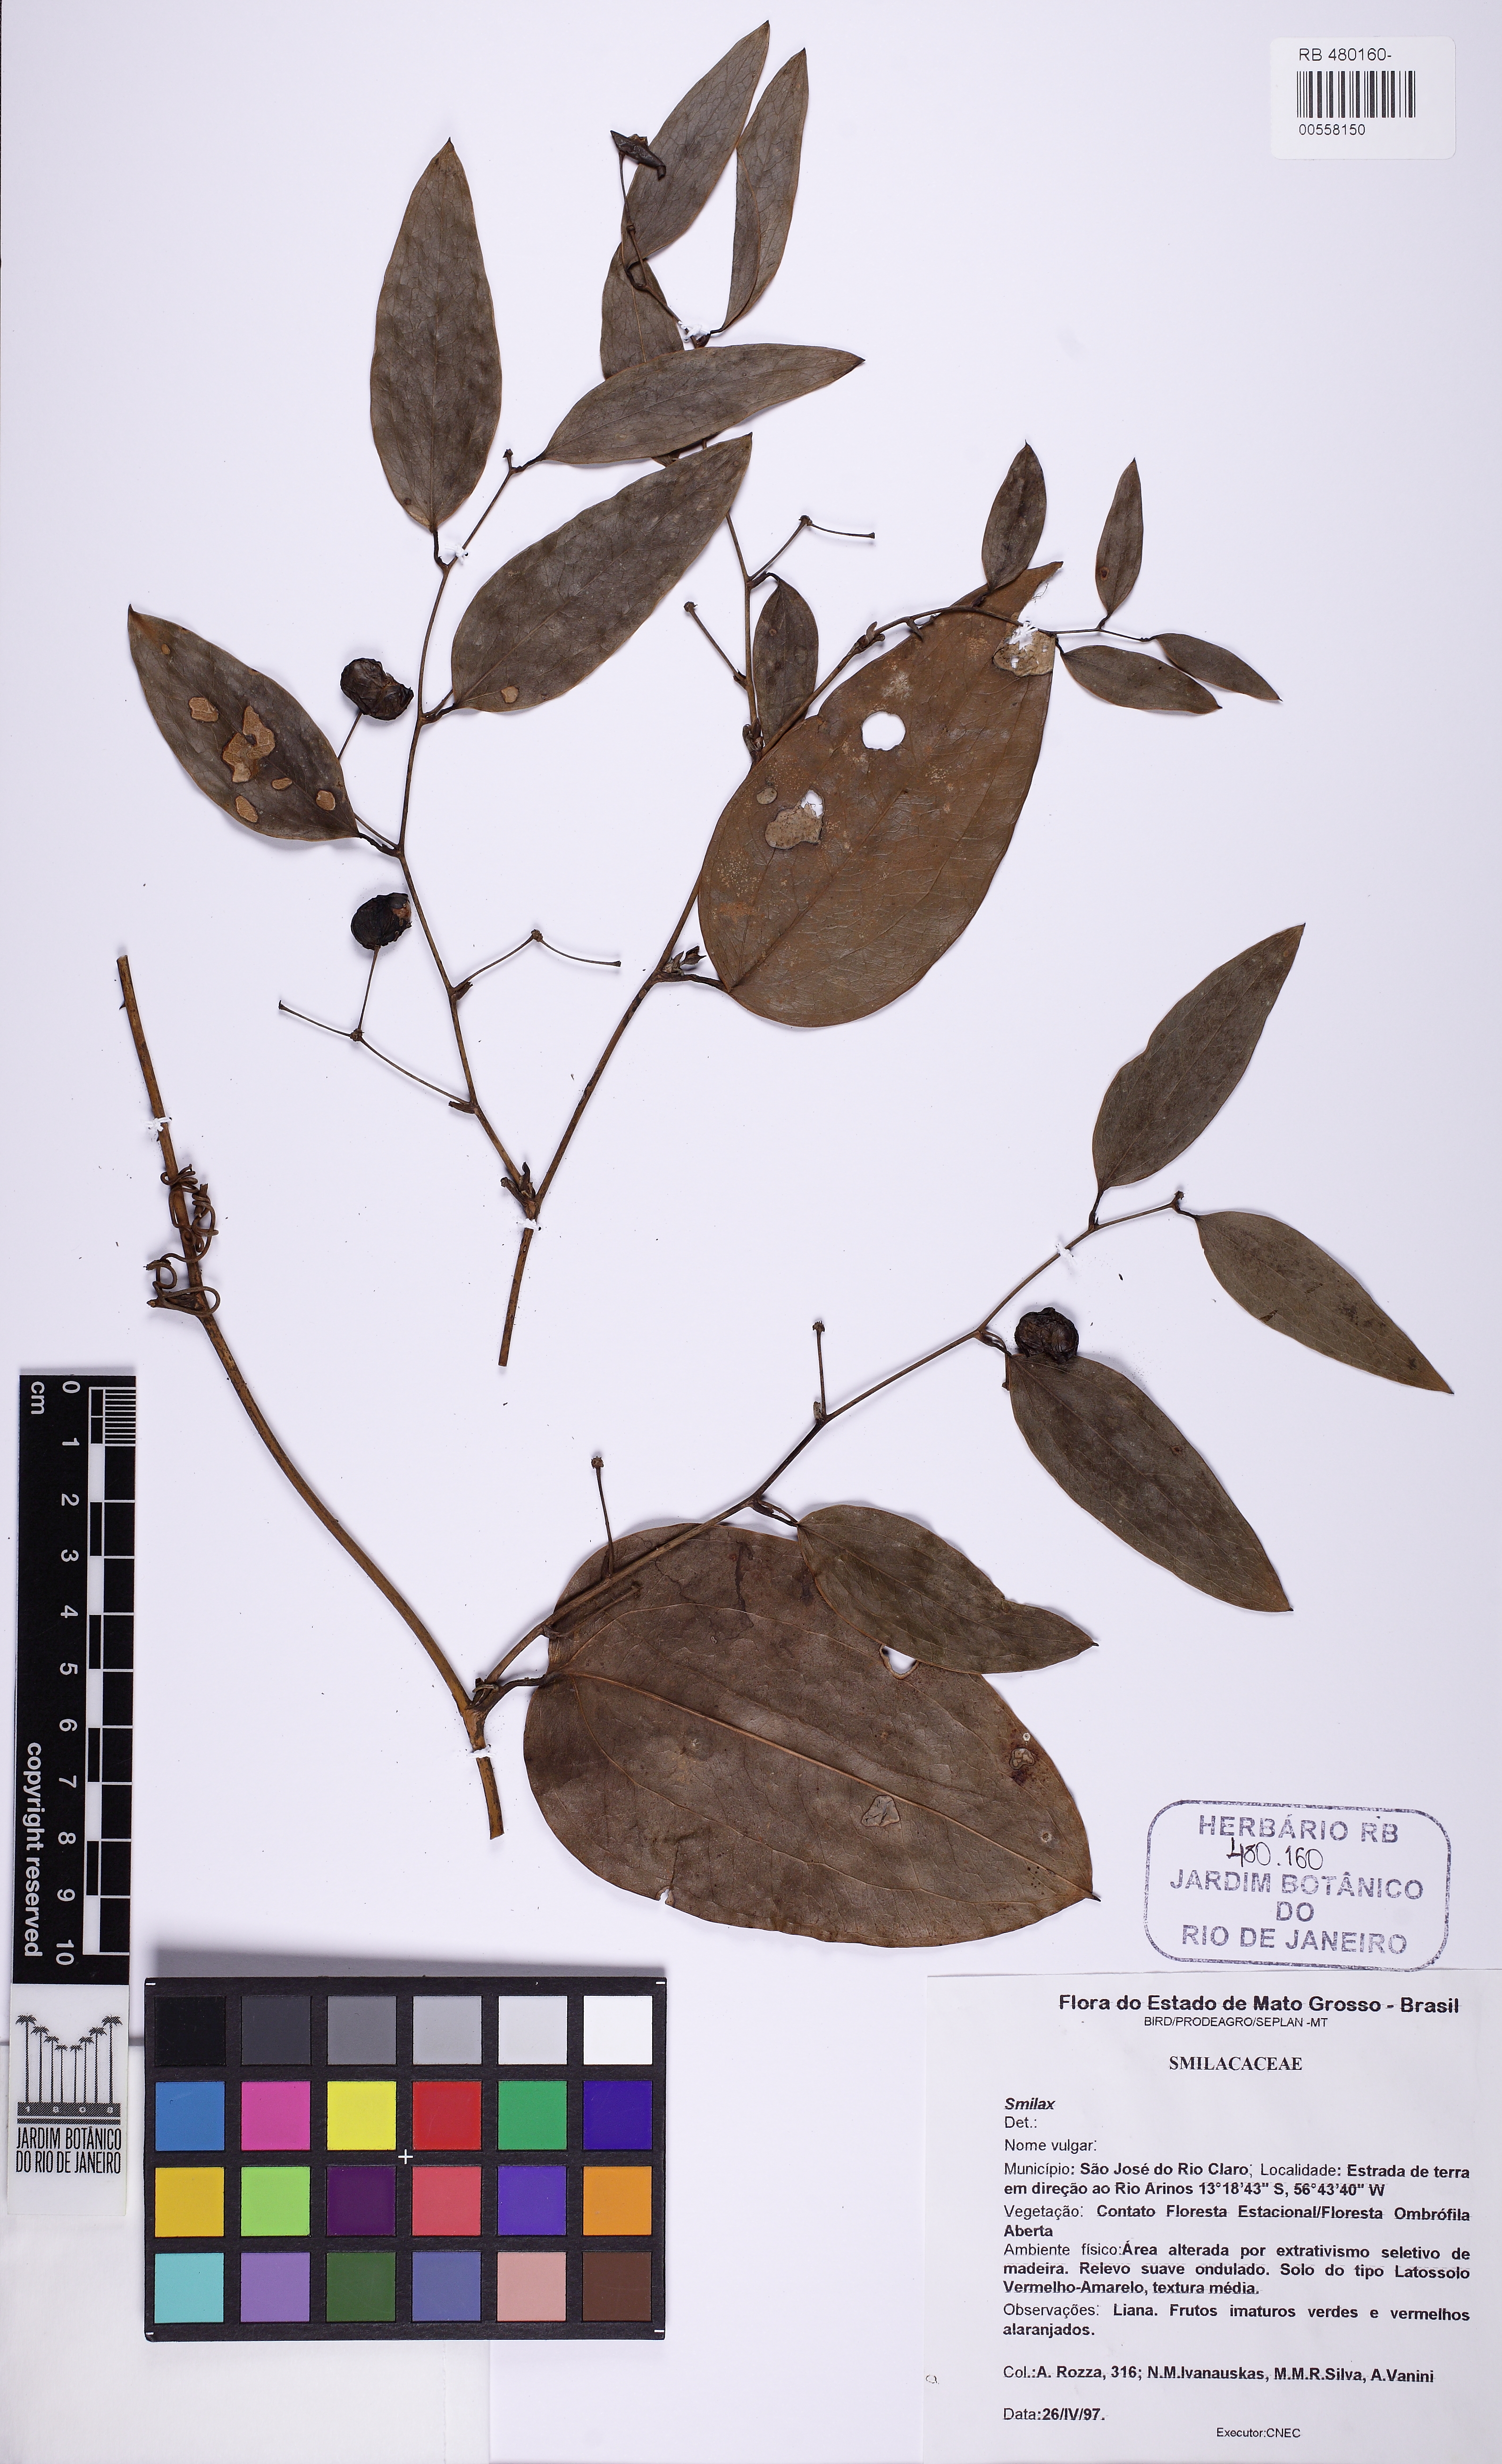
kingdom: Plantae
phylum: Tracheophyta
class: Liliopsida
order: Liliales
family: Smilacaceae
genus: Smilax
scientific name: Smilax
